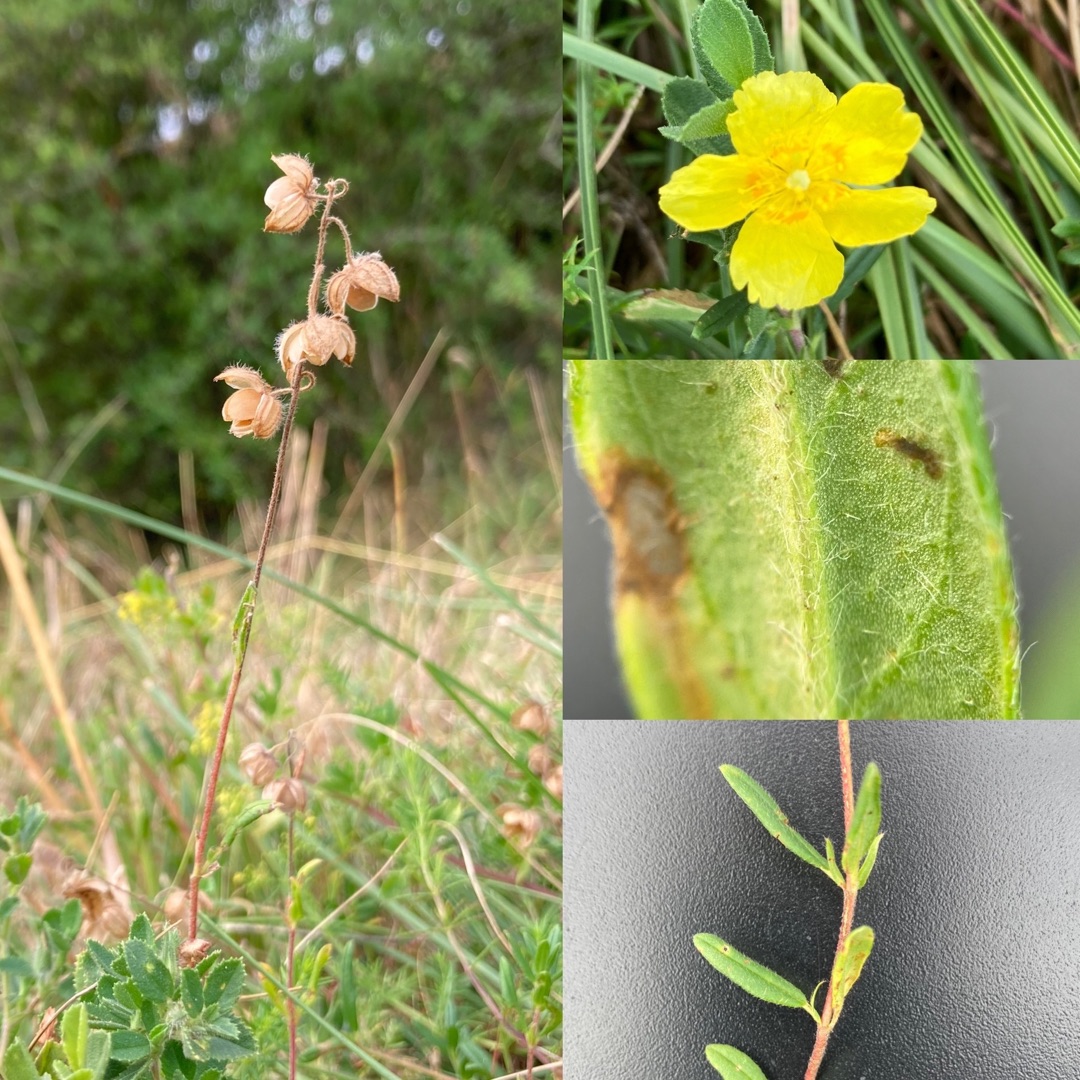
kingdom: Plantae
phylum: Tracheophyta
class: Magnoliopsida
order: Malvales
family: Cistaceae
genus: Helianthemum
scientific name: Helianthemum nummularium
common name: Bakke-soløje
